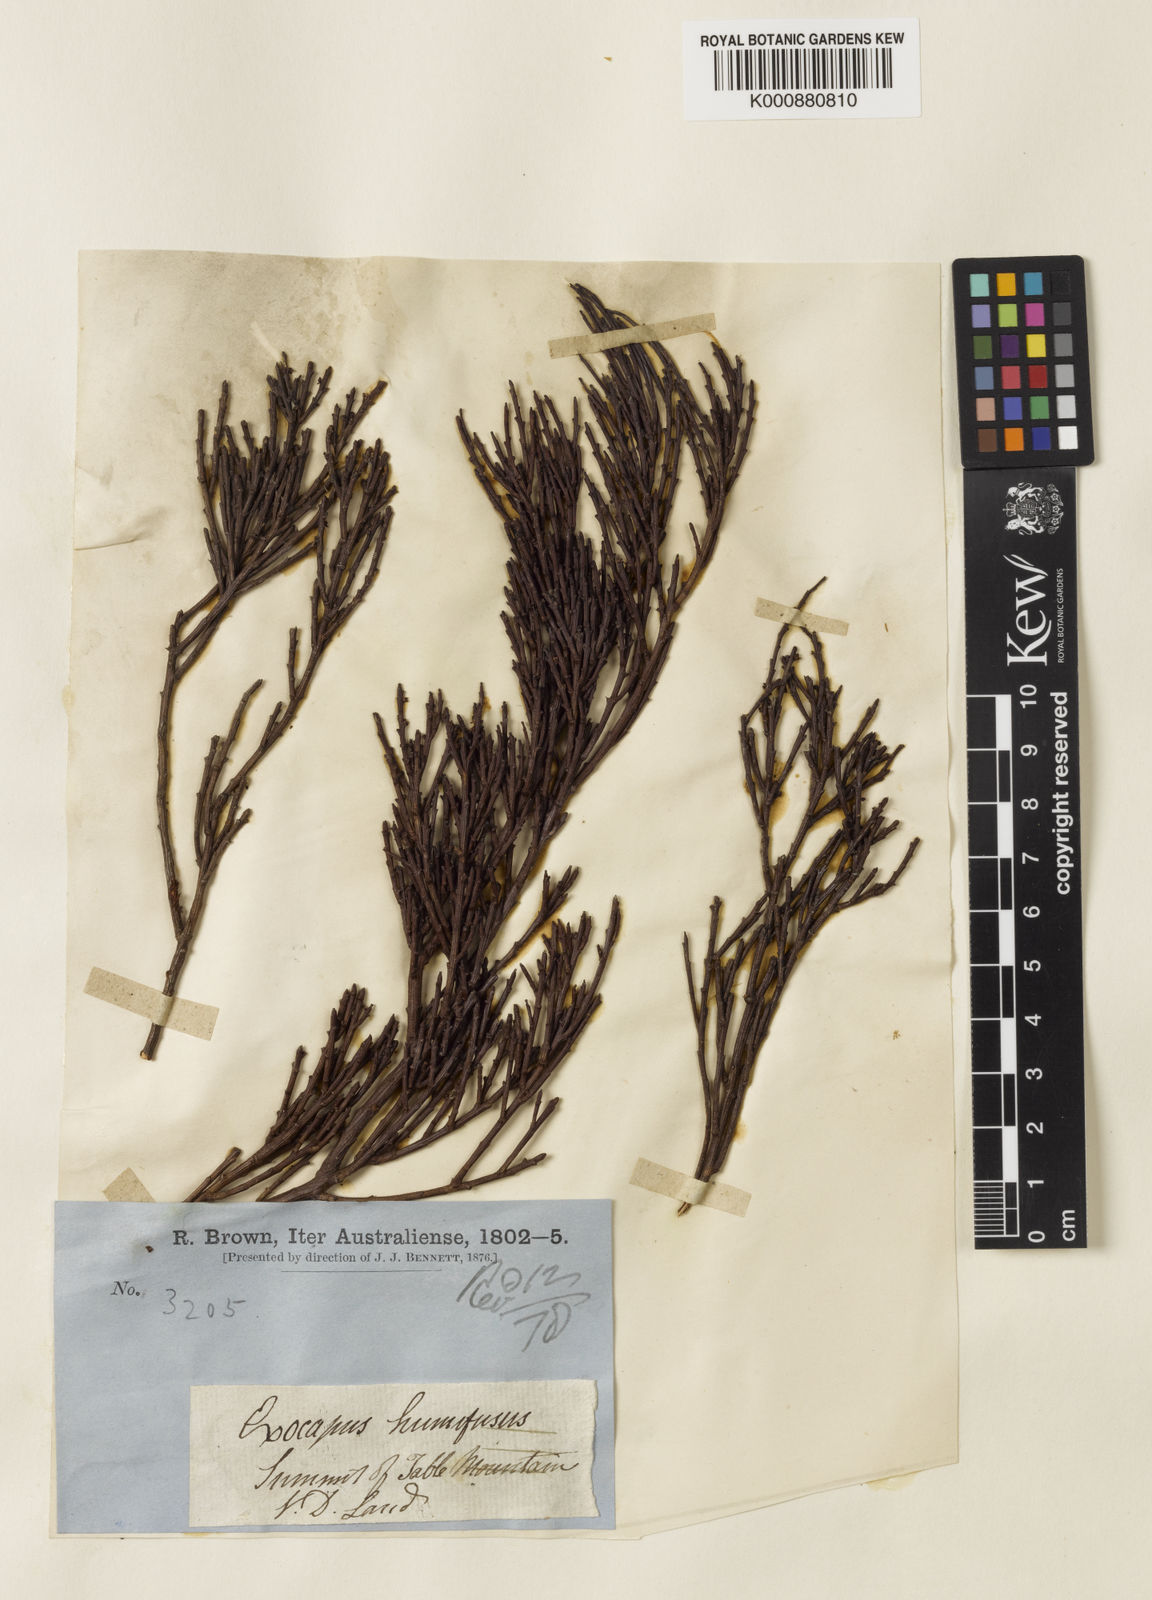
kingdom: Plantae
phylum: Tracheophyta
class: Magnoliopsida
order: Santalales
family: Santalaceae
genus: Exocarpos
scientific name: Exocarpos humifusus
